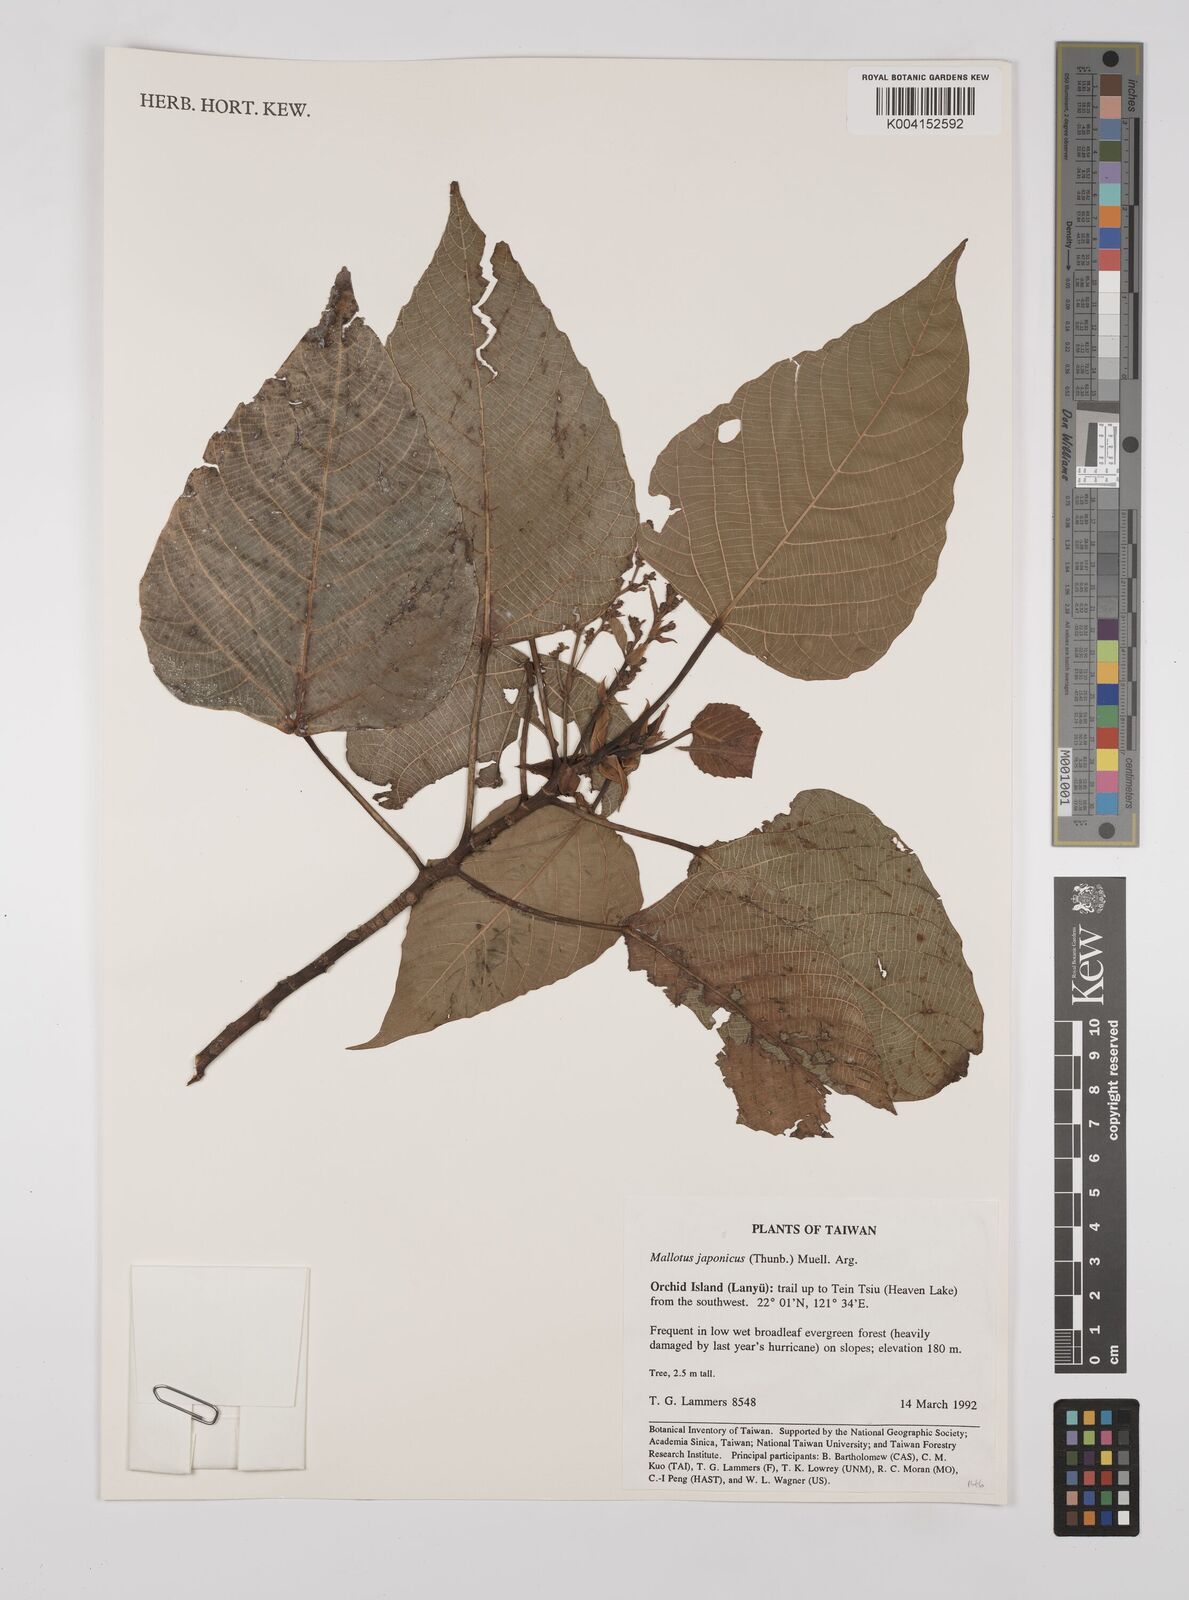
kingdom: Plantae
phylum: Tracheophyta
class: Magnoliopsida
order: Malpighiales
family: Euphorbiaceae
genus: Mallotus
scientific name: Mallotus japonicus
